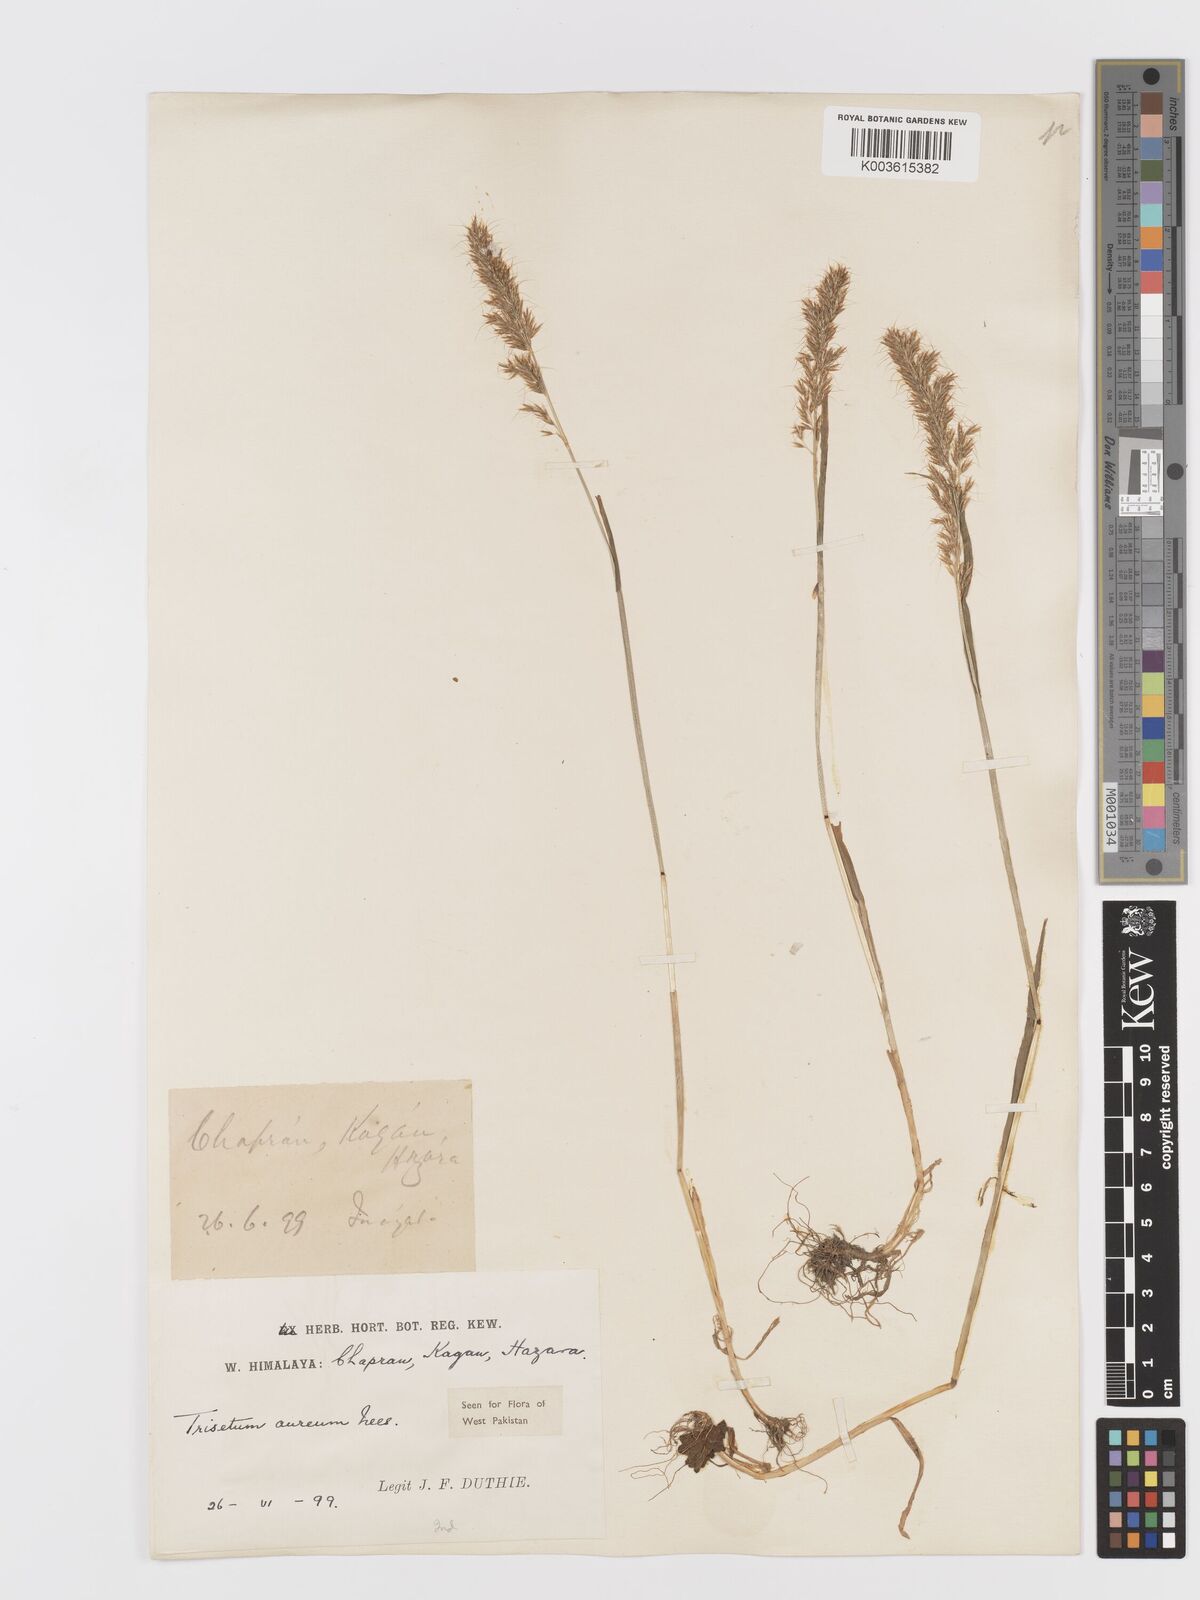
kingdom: Plantae
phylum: Tracheophyta
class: Liliopsida
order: Poales
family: Poaceae
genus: Sibirotrisetum
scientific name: Sibirotrisetum aeneum
